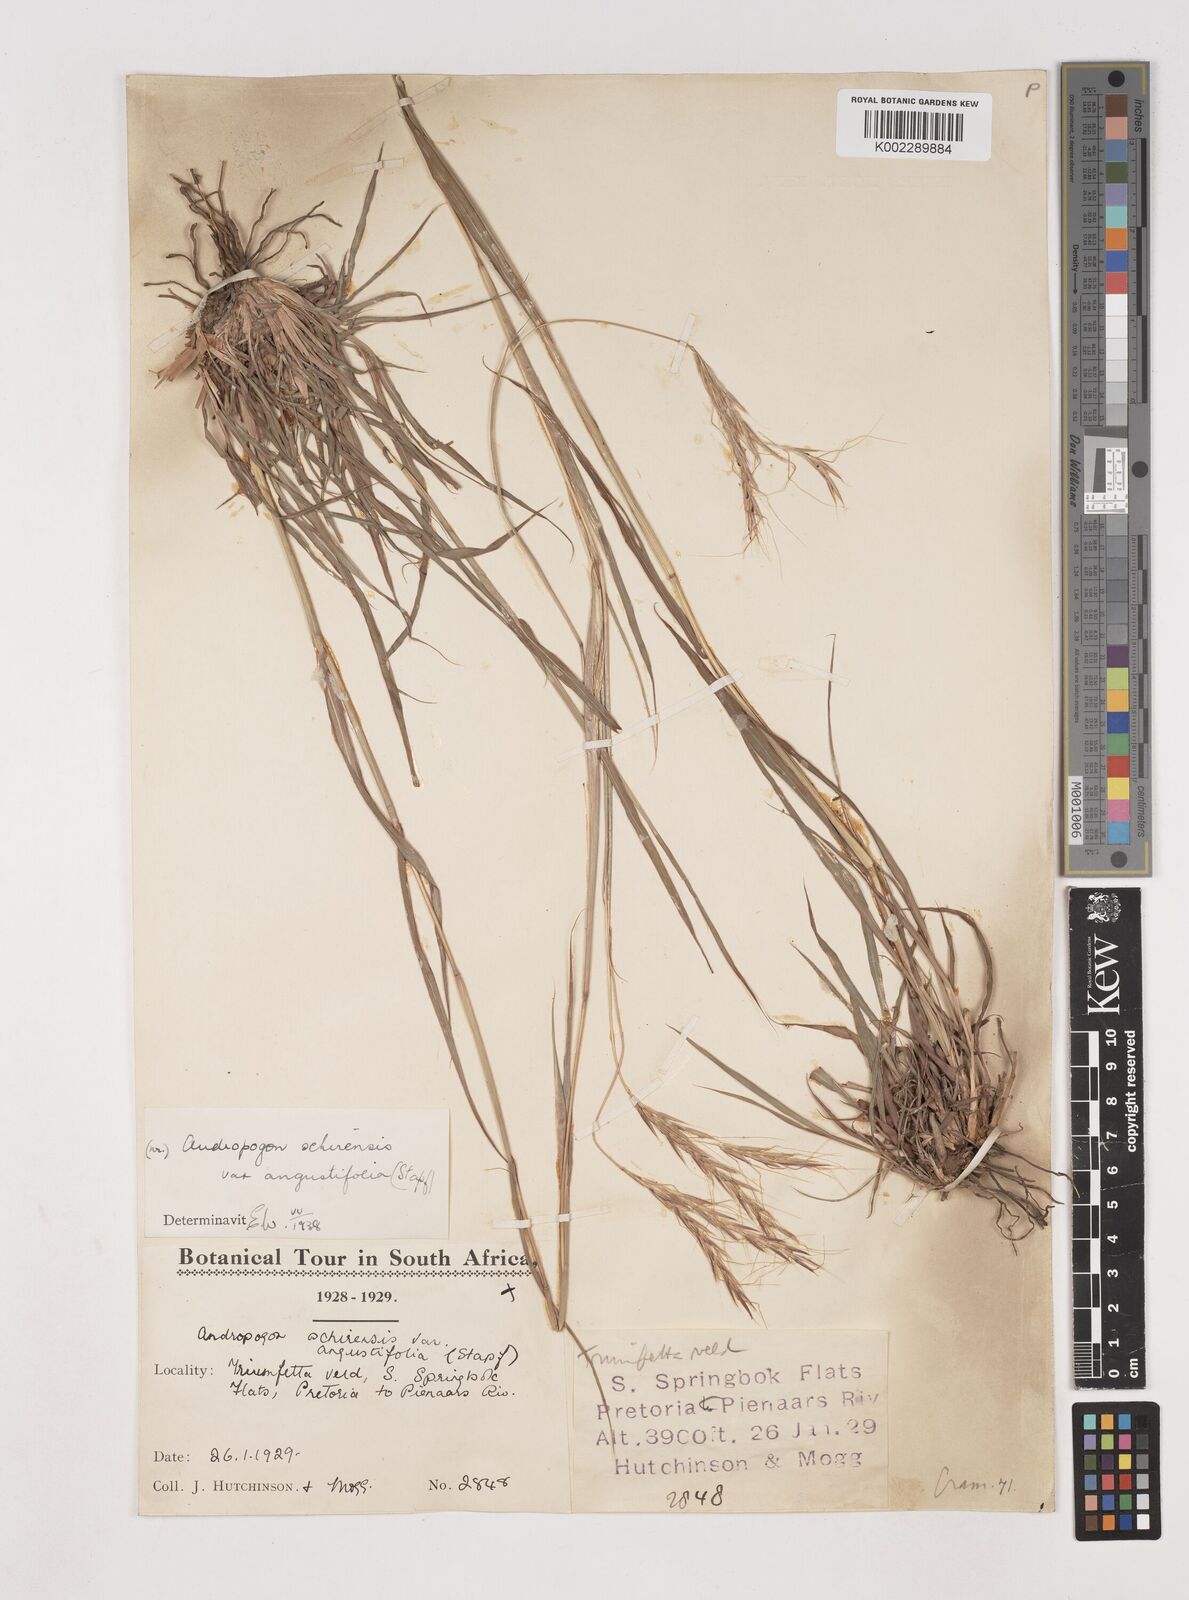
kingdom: Plantae
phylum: Tracheophyta
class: Liliopsida
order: Poales
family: Poaceae
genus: Diheteropogon
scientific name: Diheteropogon amplectens
